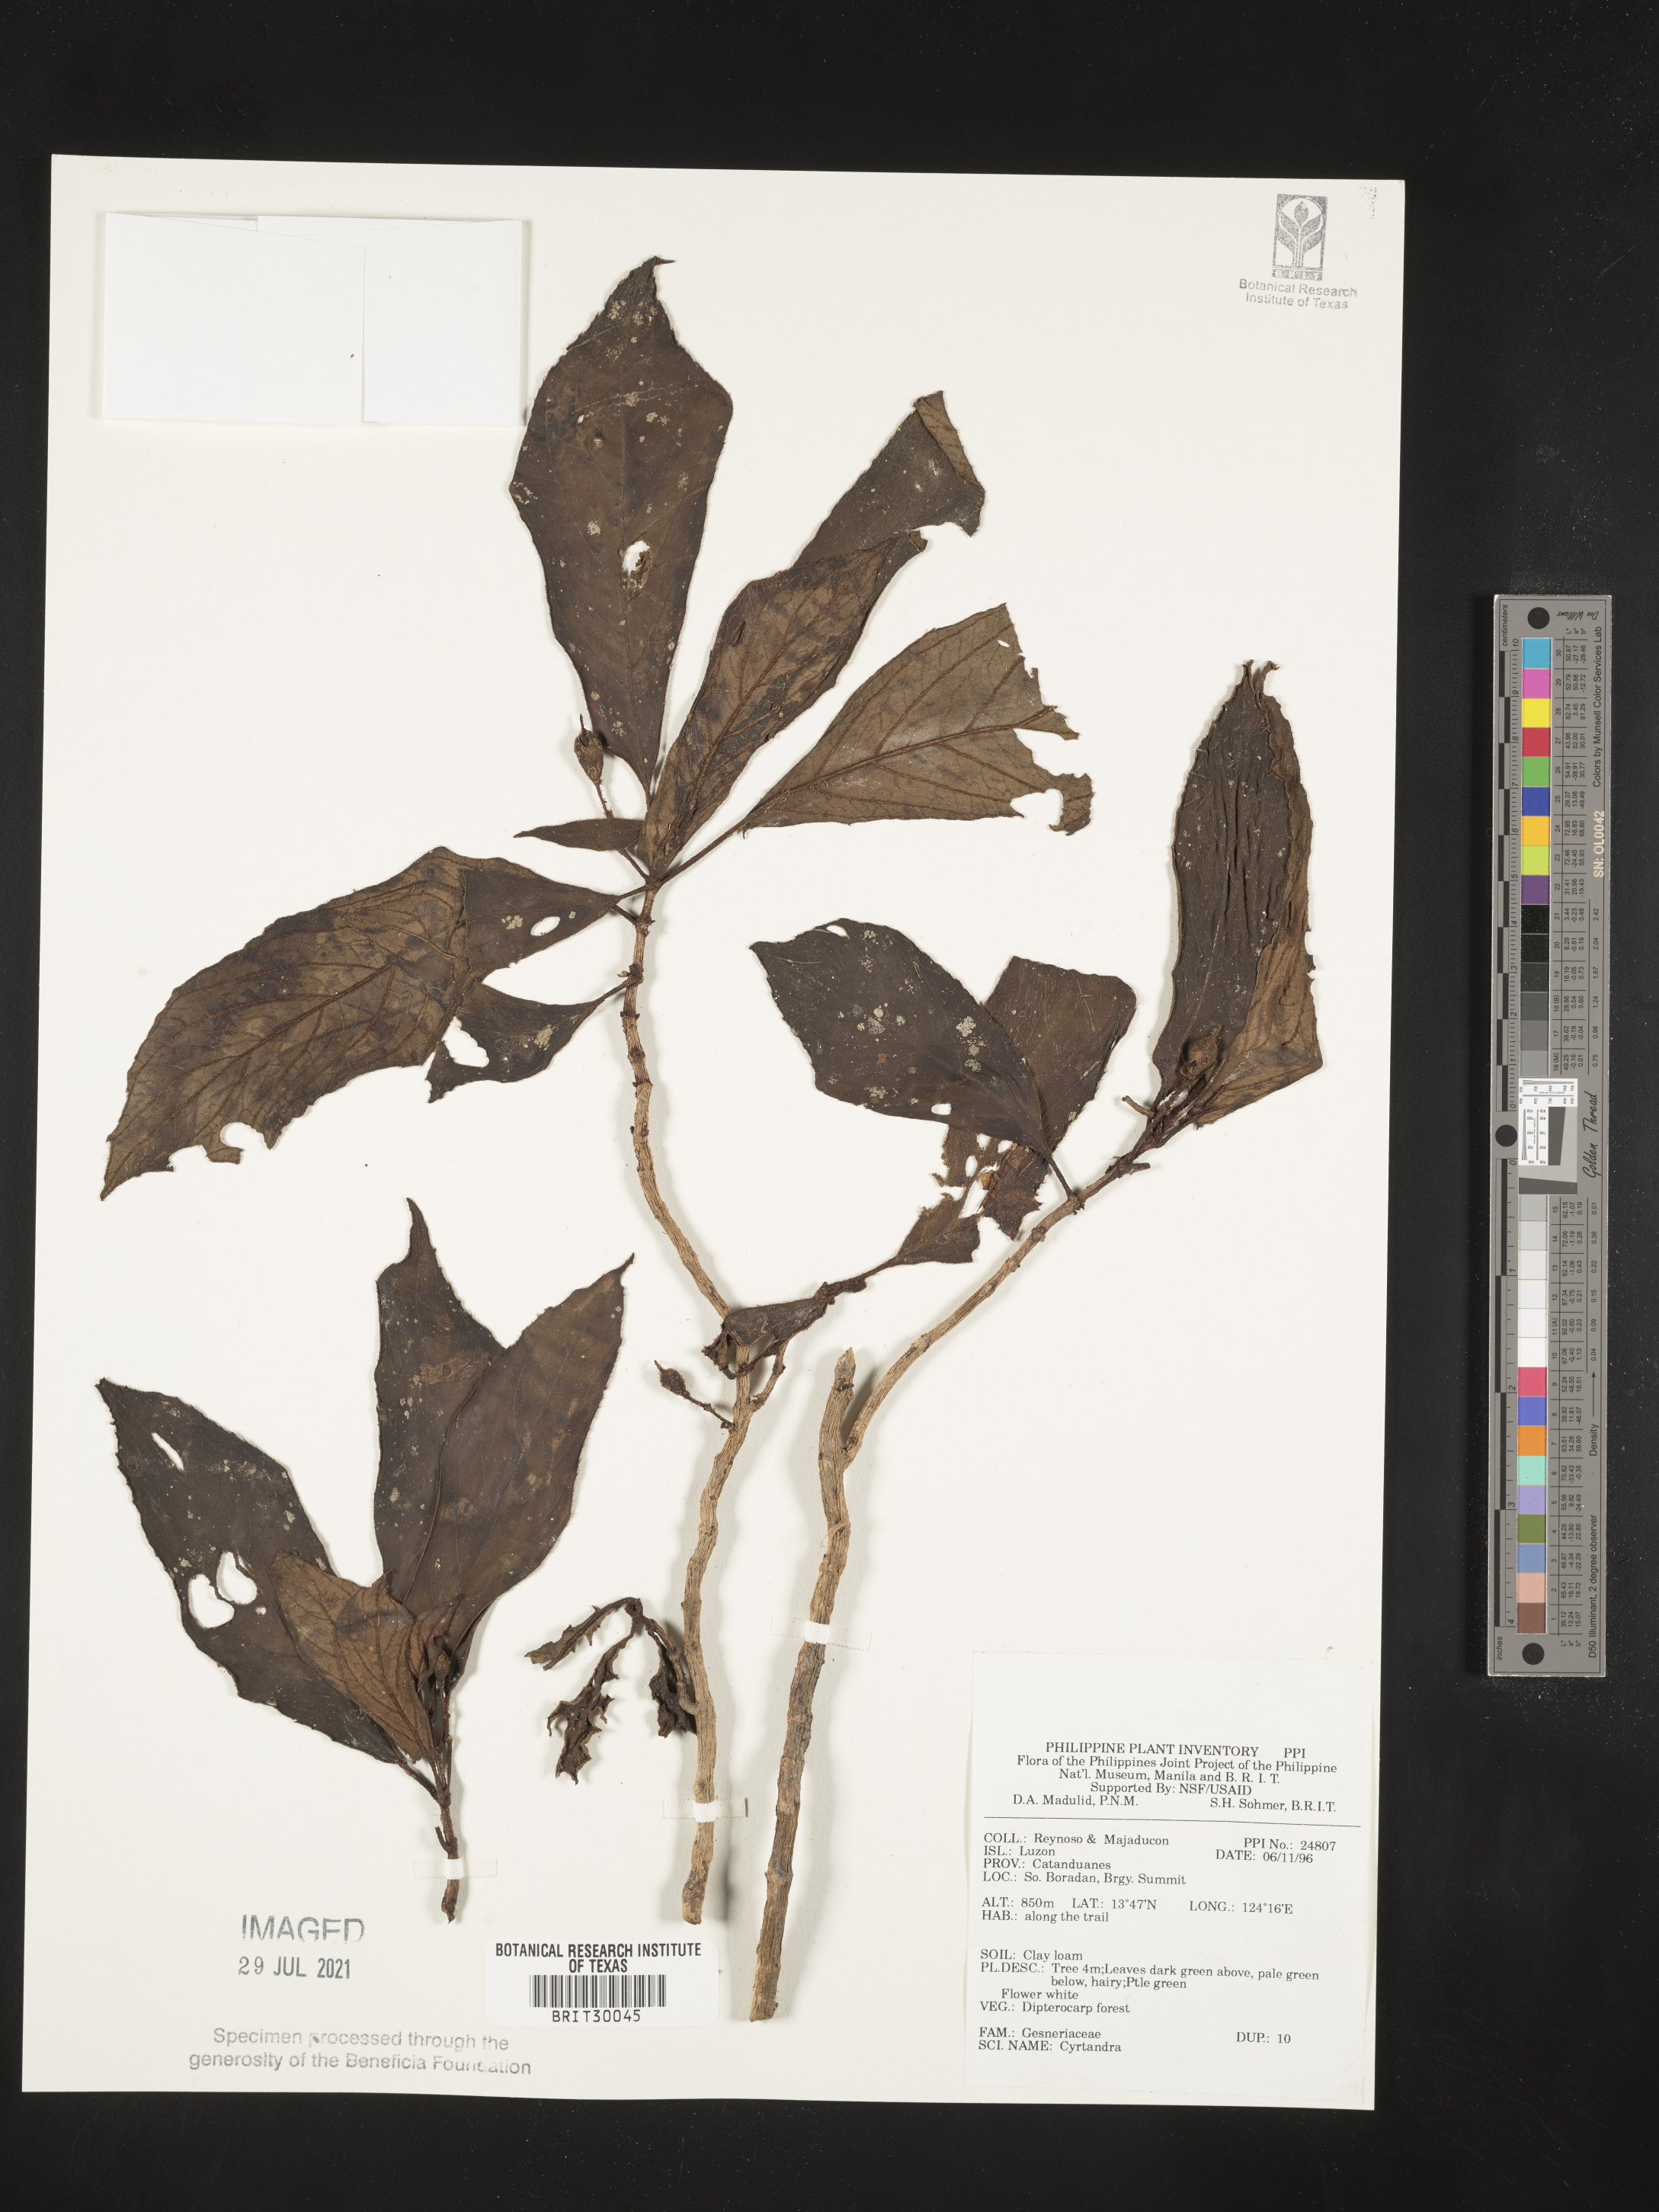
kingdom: Plantae
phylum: Tracheophyta
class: Magnoliopsida
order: Lamiales
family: Gesneriaceae
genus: Cyrtandra
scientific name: Cyrtandra
